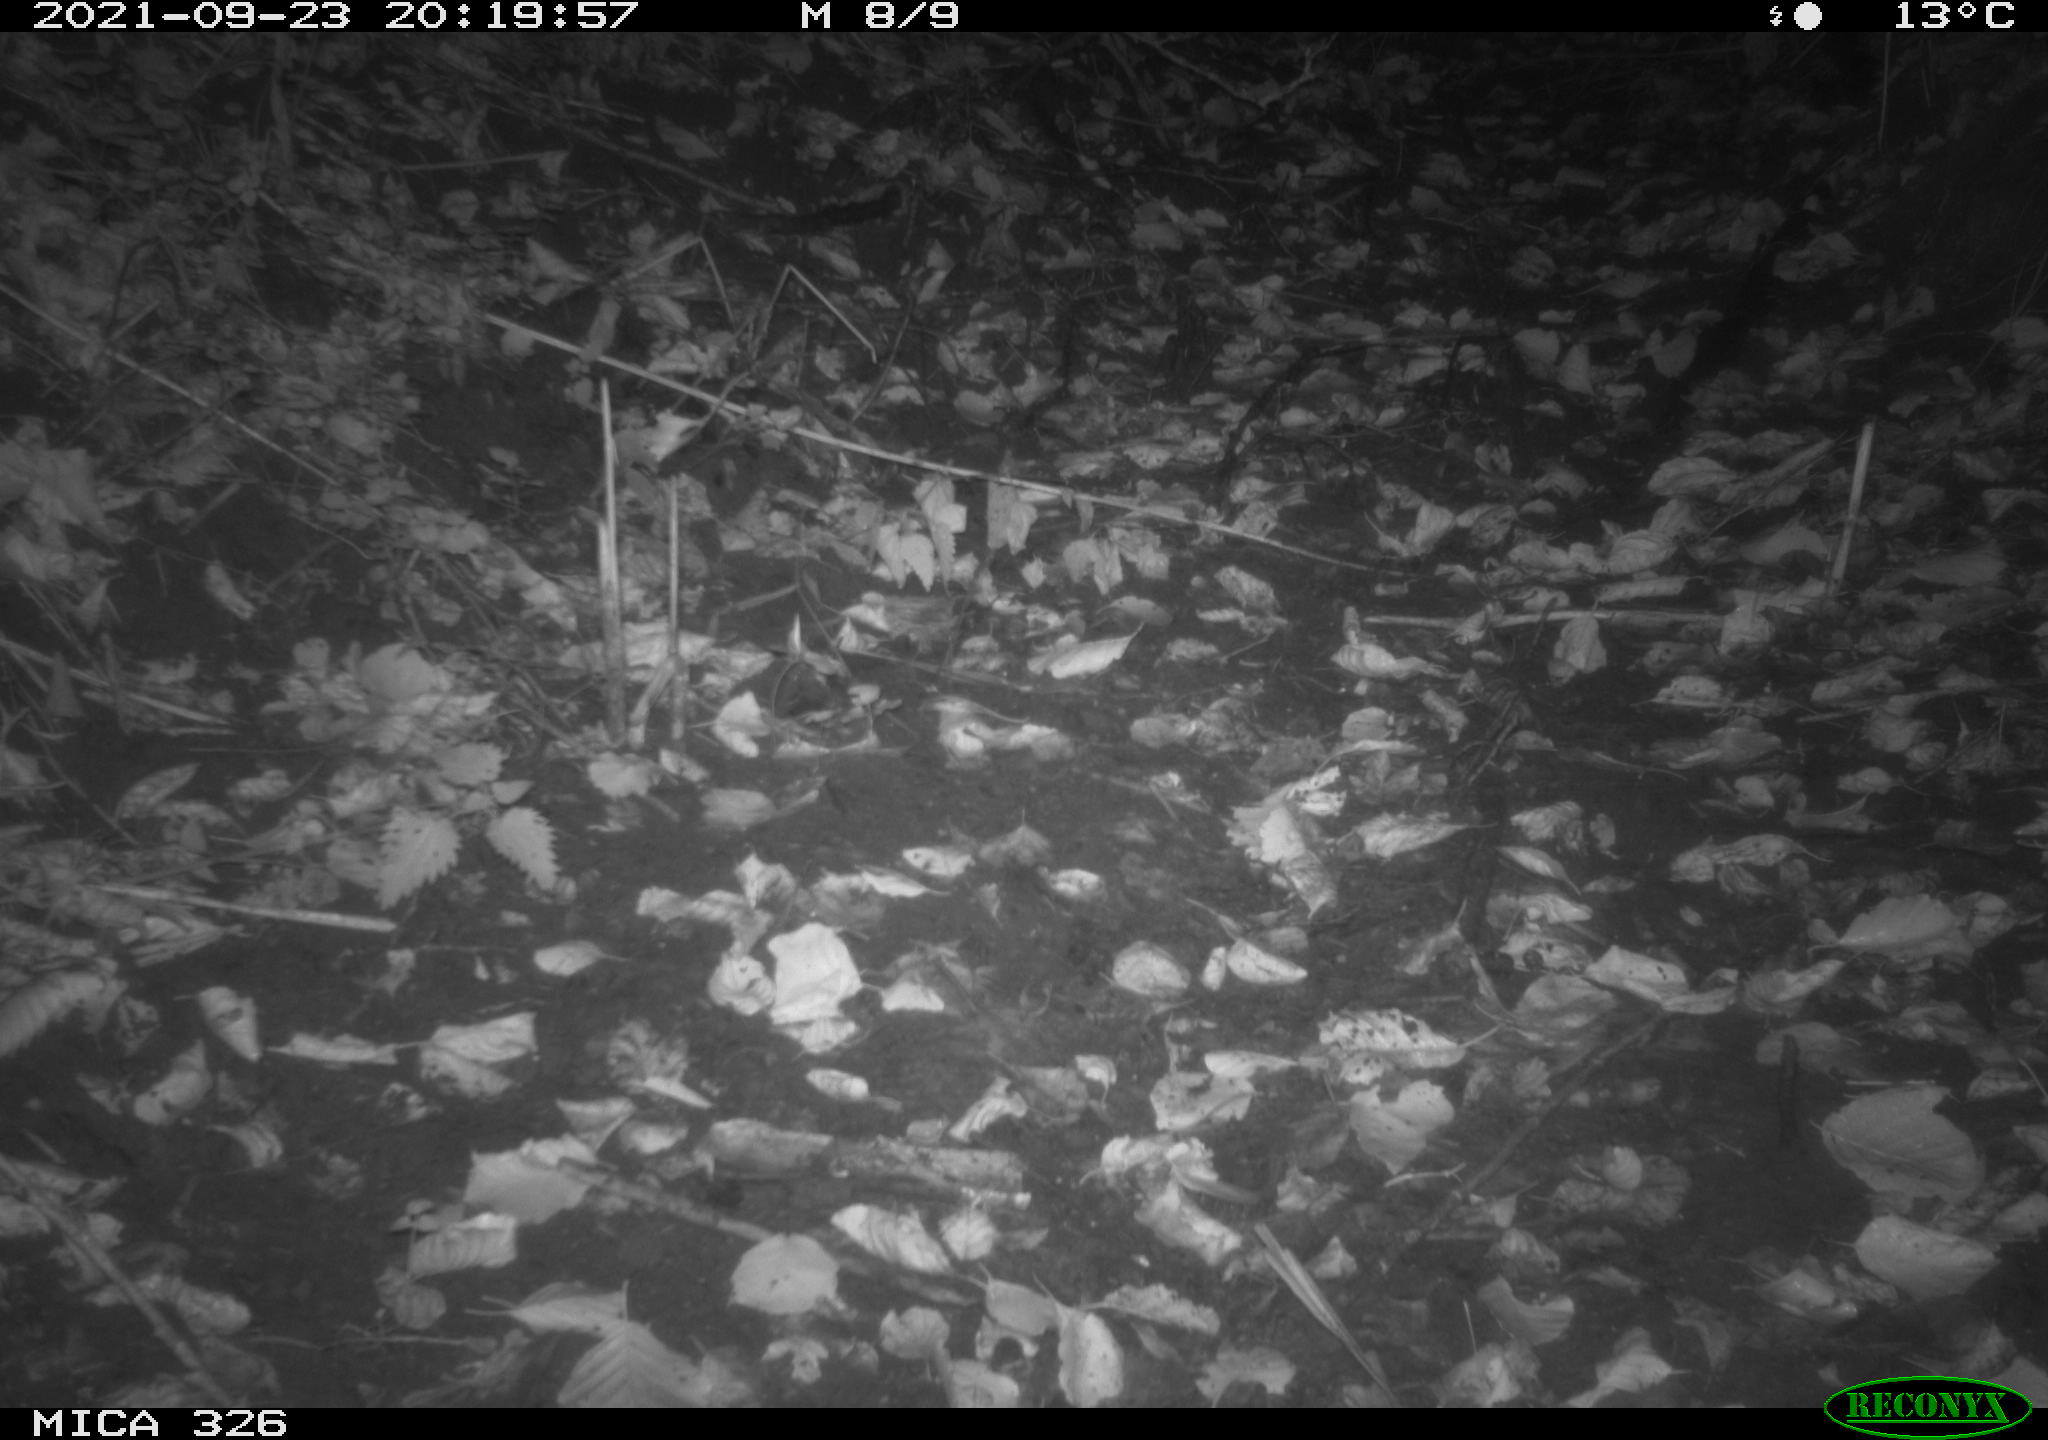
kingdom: Animalia
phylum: Chordata
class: Mammalia
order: Rodentia
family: Muridae
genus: Rattus
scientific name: Rattus norvegicus
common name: Brown rat
